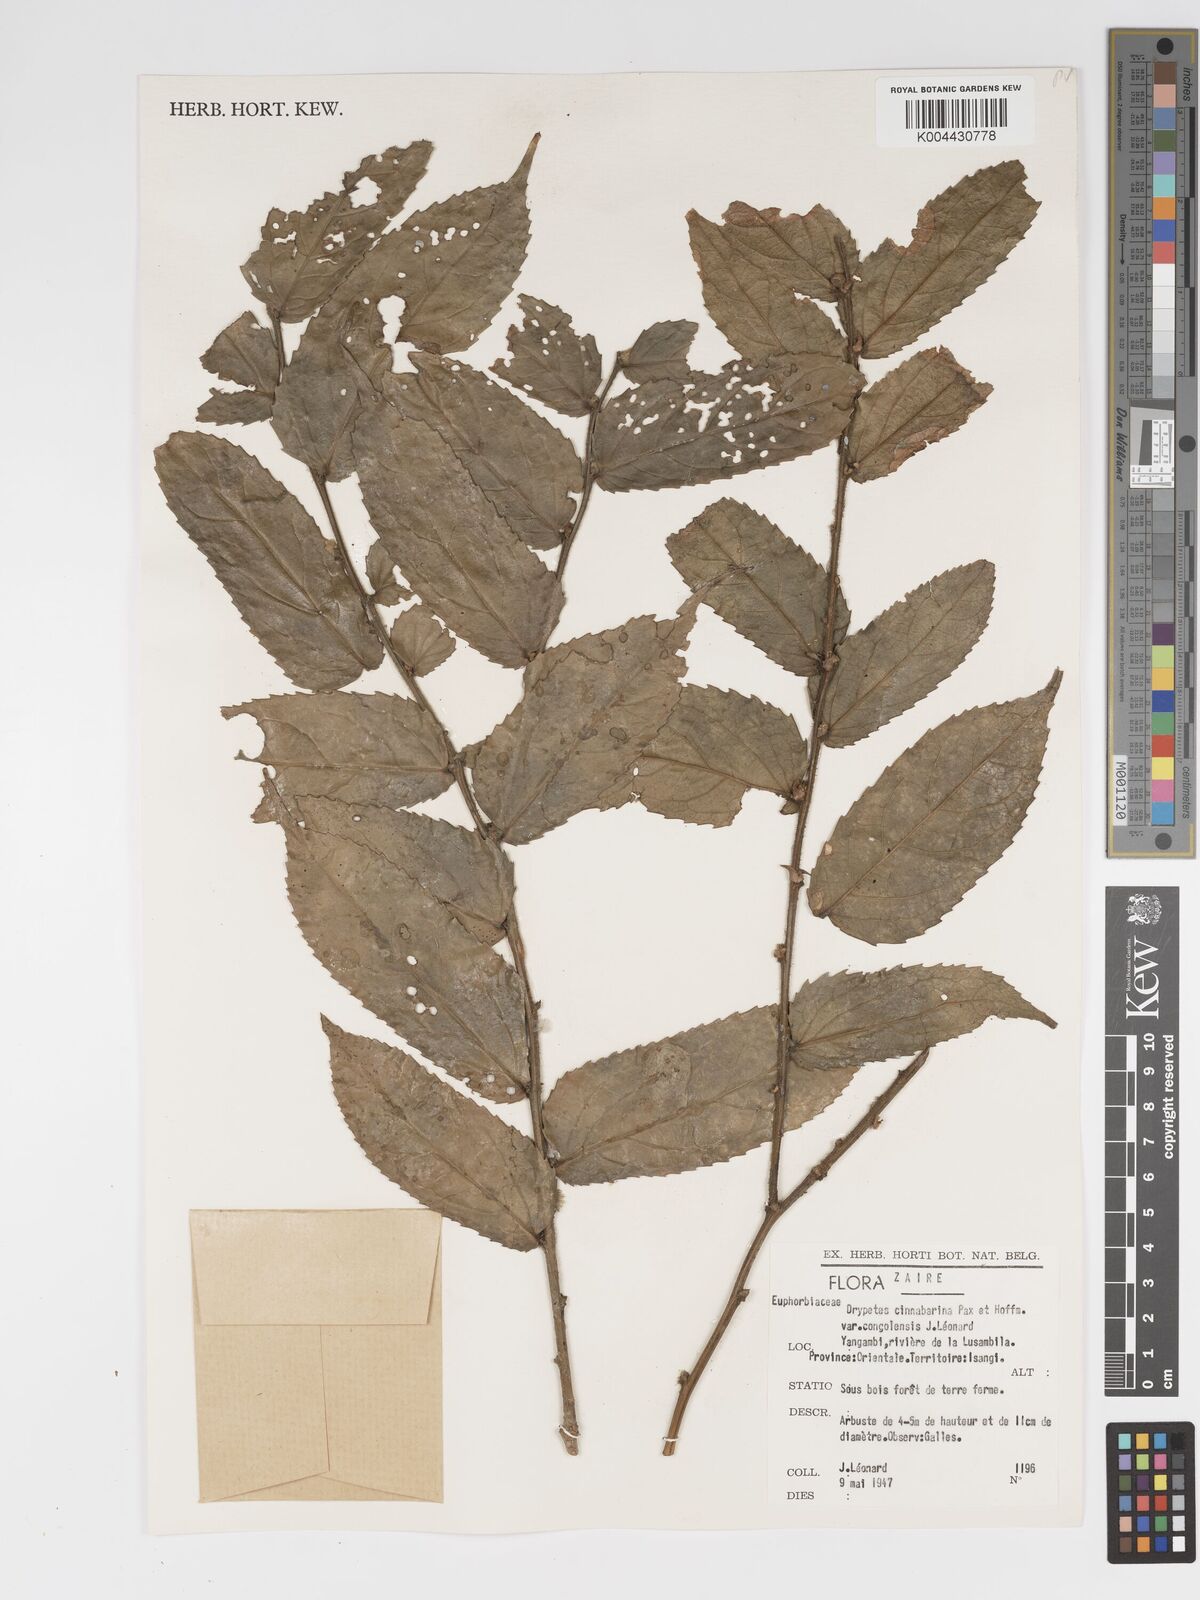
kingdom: Plantae
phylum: Tracheophyta
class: Magnoliopsida
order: Malpighiales
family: Putranjivaceae
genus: Drypetes
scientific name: Drypetes cinnabarina
